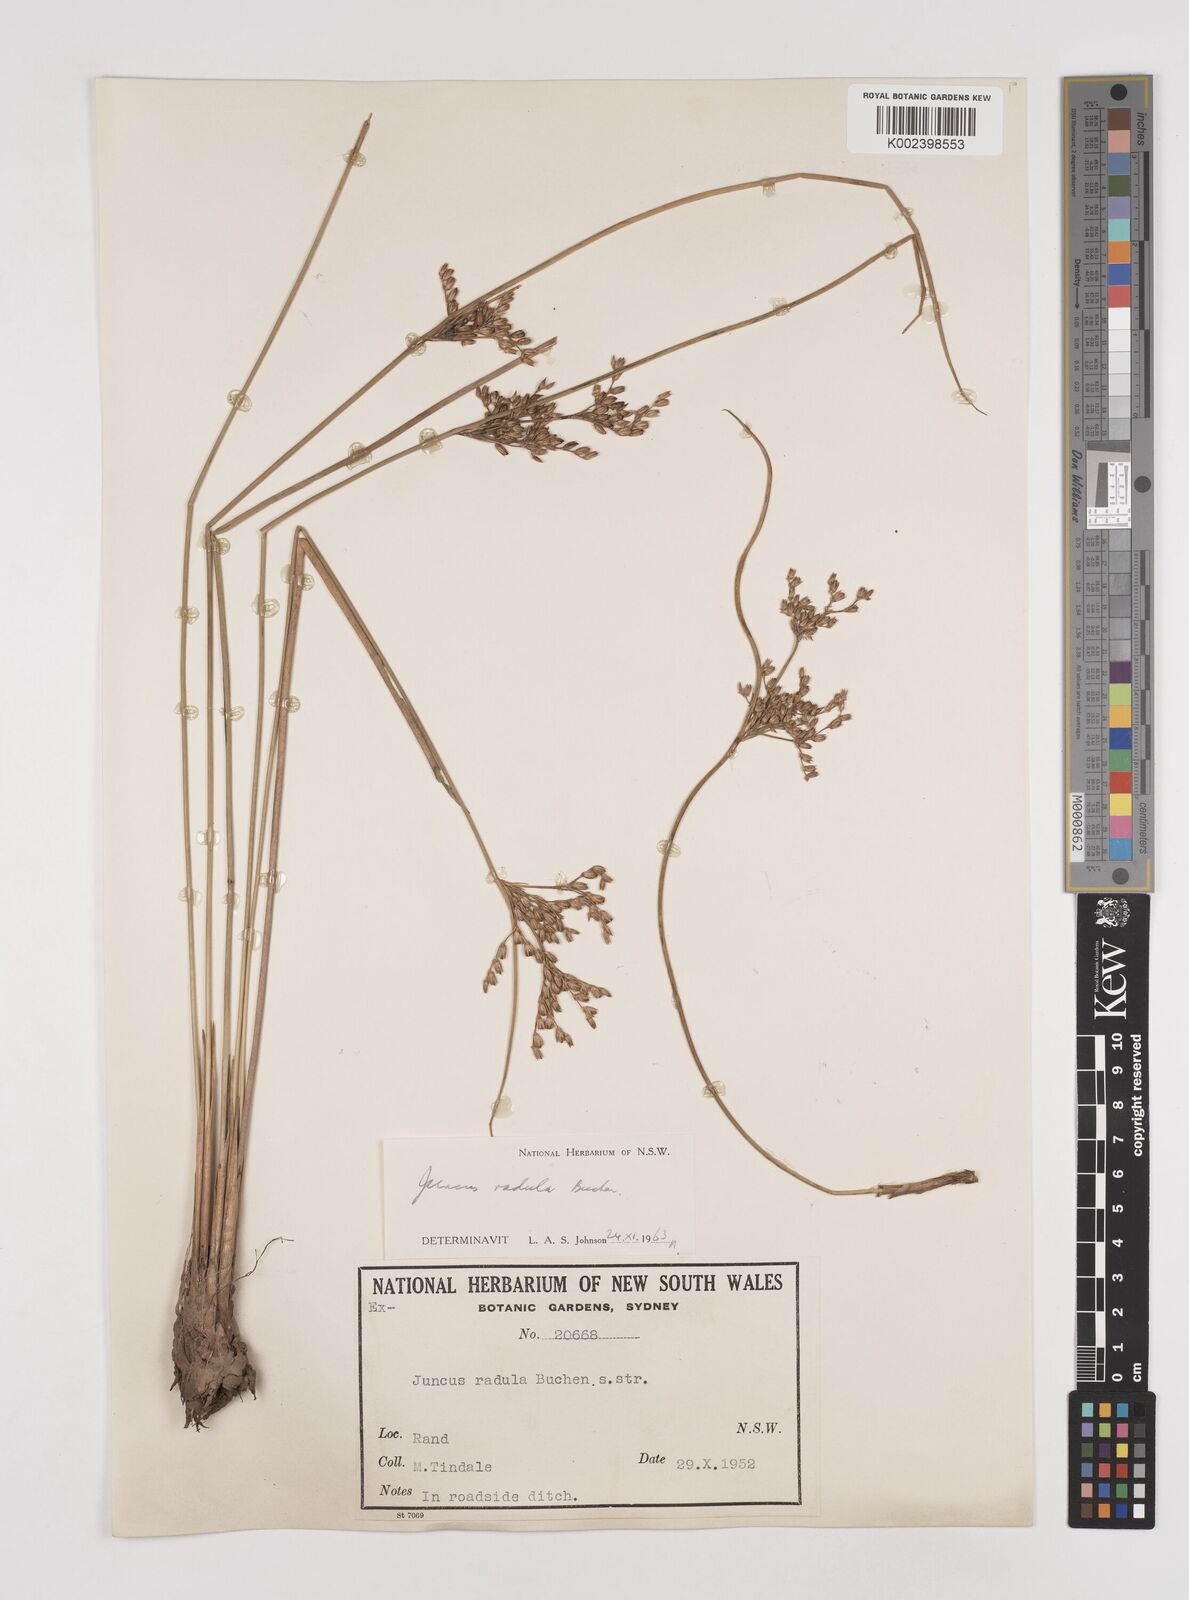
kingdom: Plantae
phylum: Tracheophyta
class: Liliopsida
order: Poales
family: Juncaceae
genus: Juncus
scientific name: Juncus radula
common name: Hoary rush
